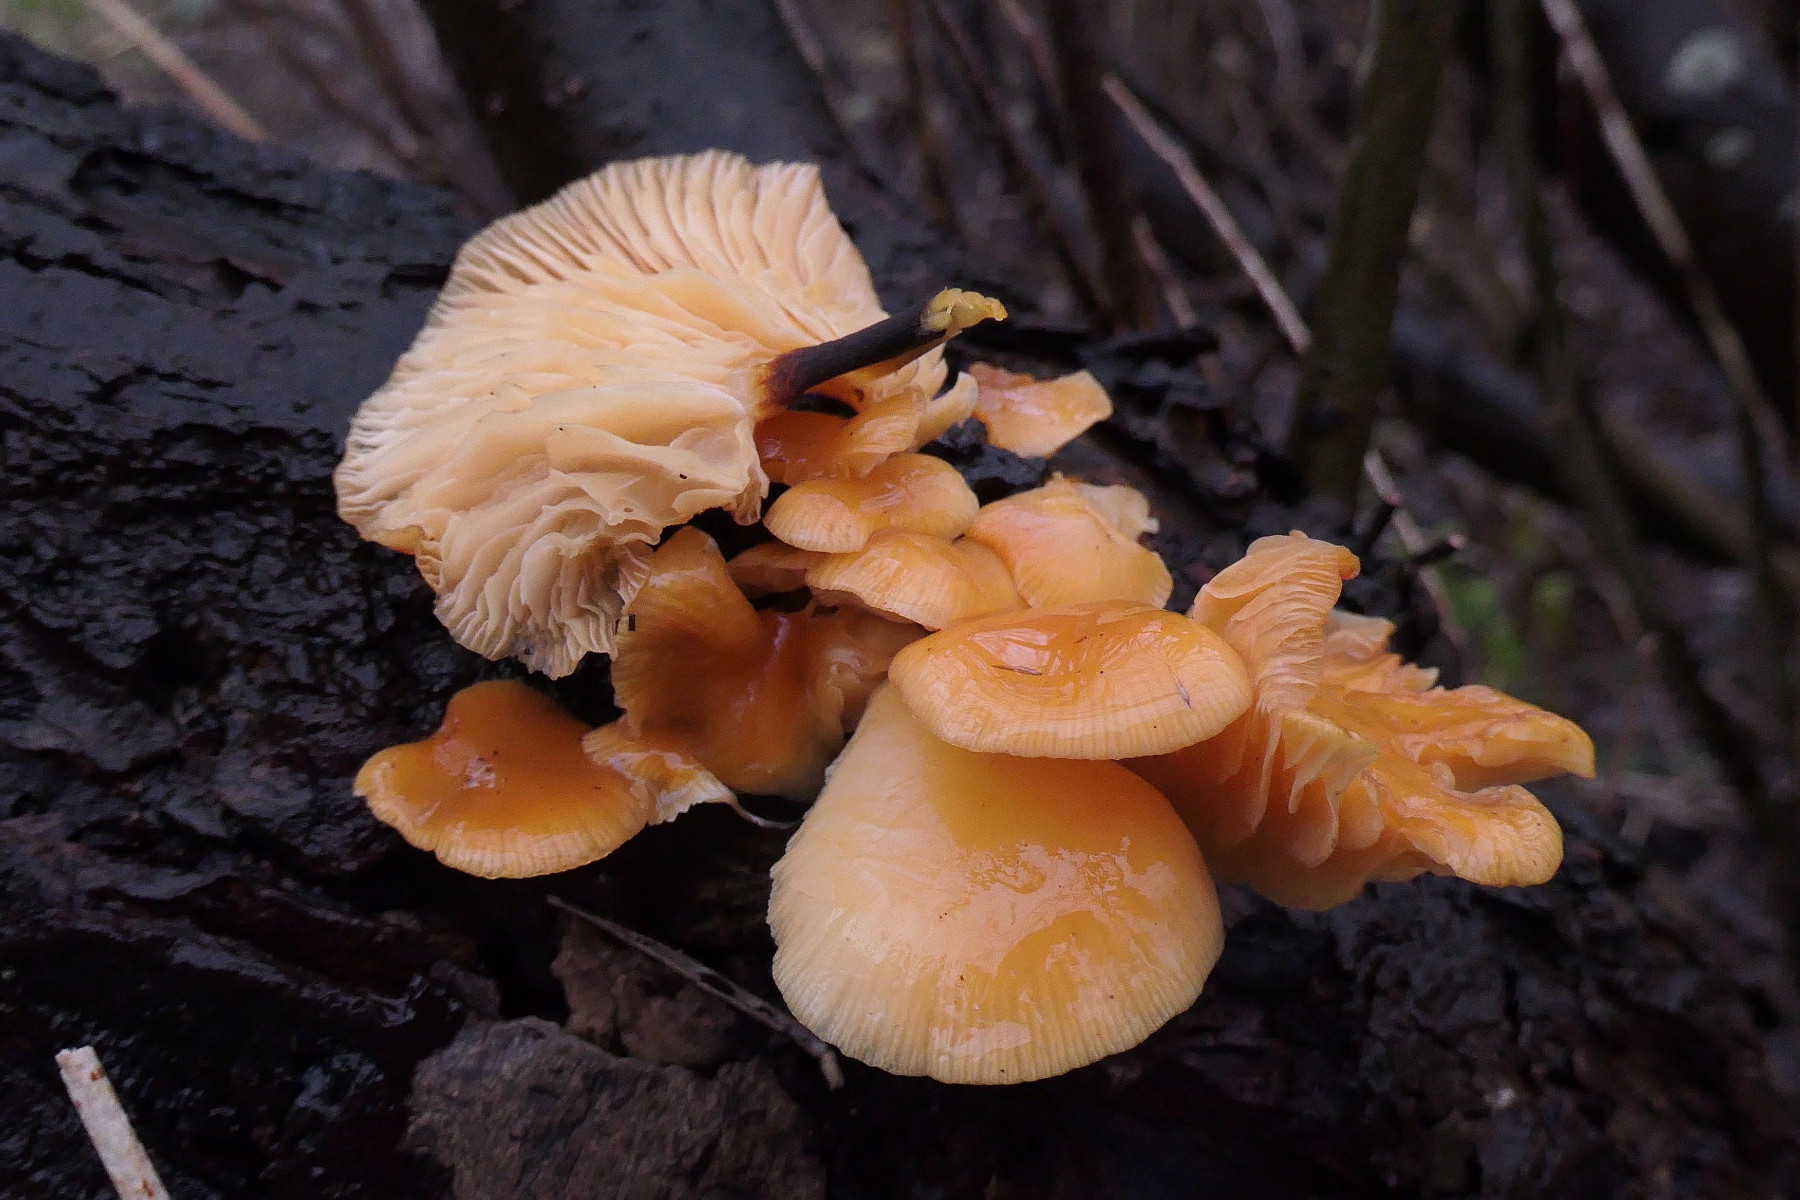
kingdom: Fungi
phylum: Basidiomycota
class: Agaricomycetes
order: Agaricales
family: Physalacriaceae
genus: Flammulina
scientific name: Flammulina velutipes
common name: gul fløjlsfod
